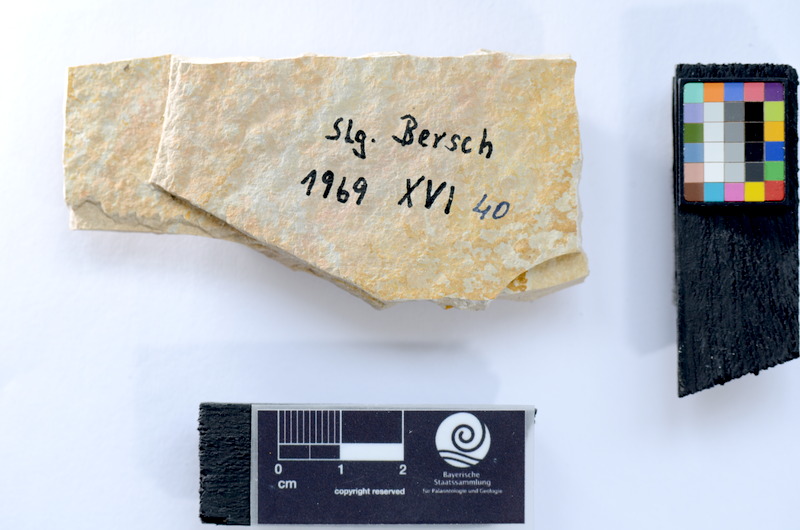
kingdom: Animalia
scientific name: Animalia
